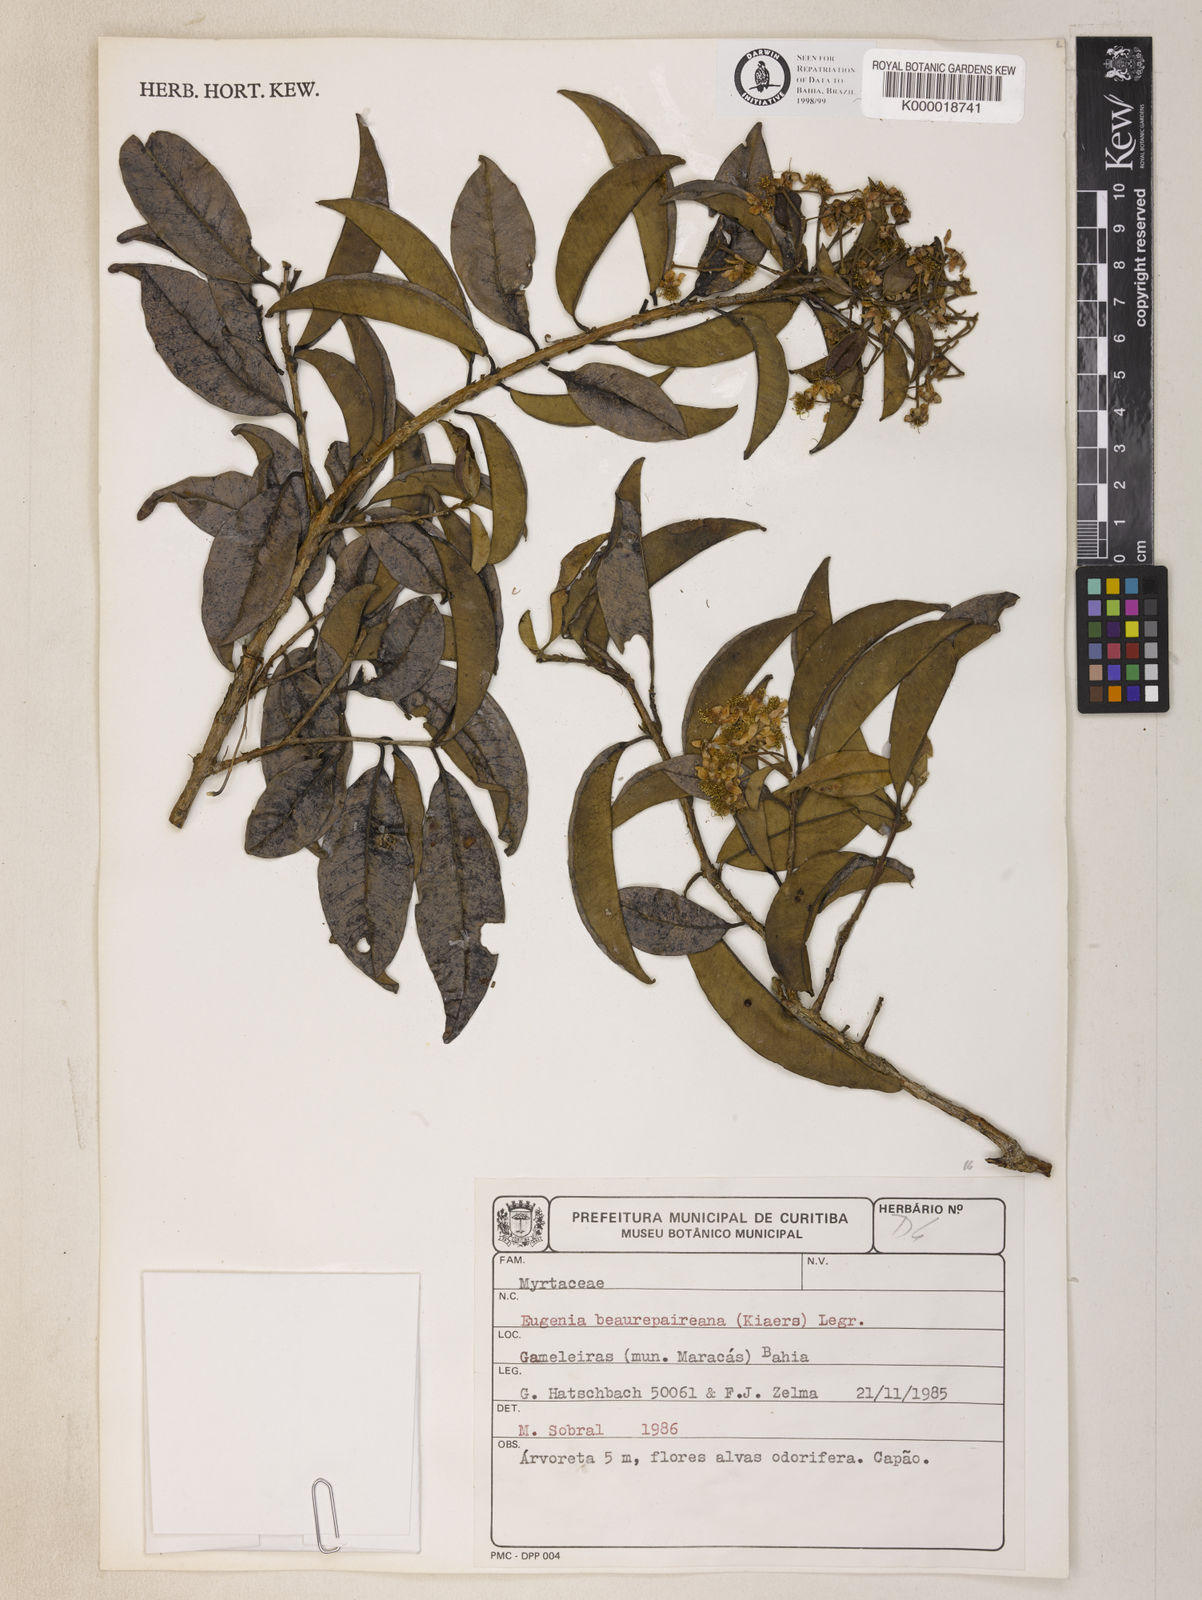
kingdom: Plantae
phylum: Tracheophyta
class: Magnoliopsida
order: Myrtales
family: Myrtaceae
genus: Eugenia
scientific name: Eugenia
